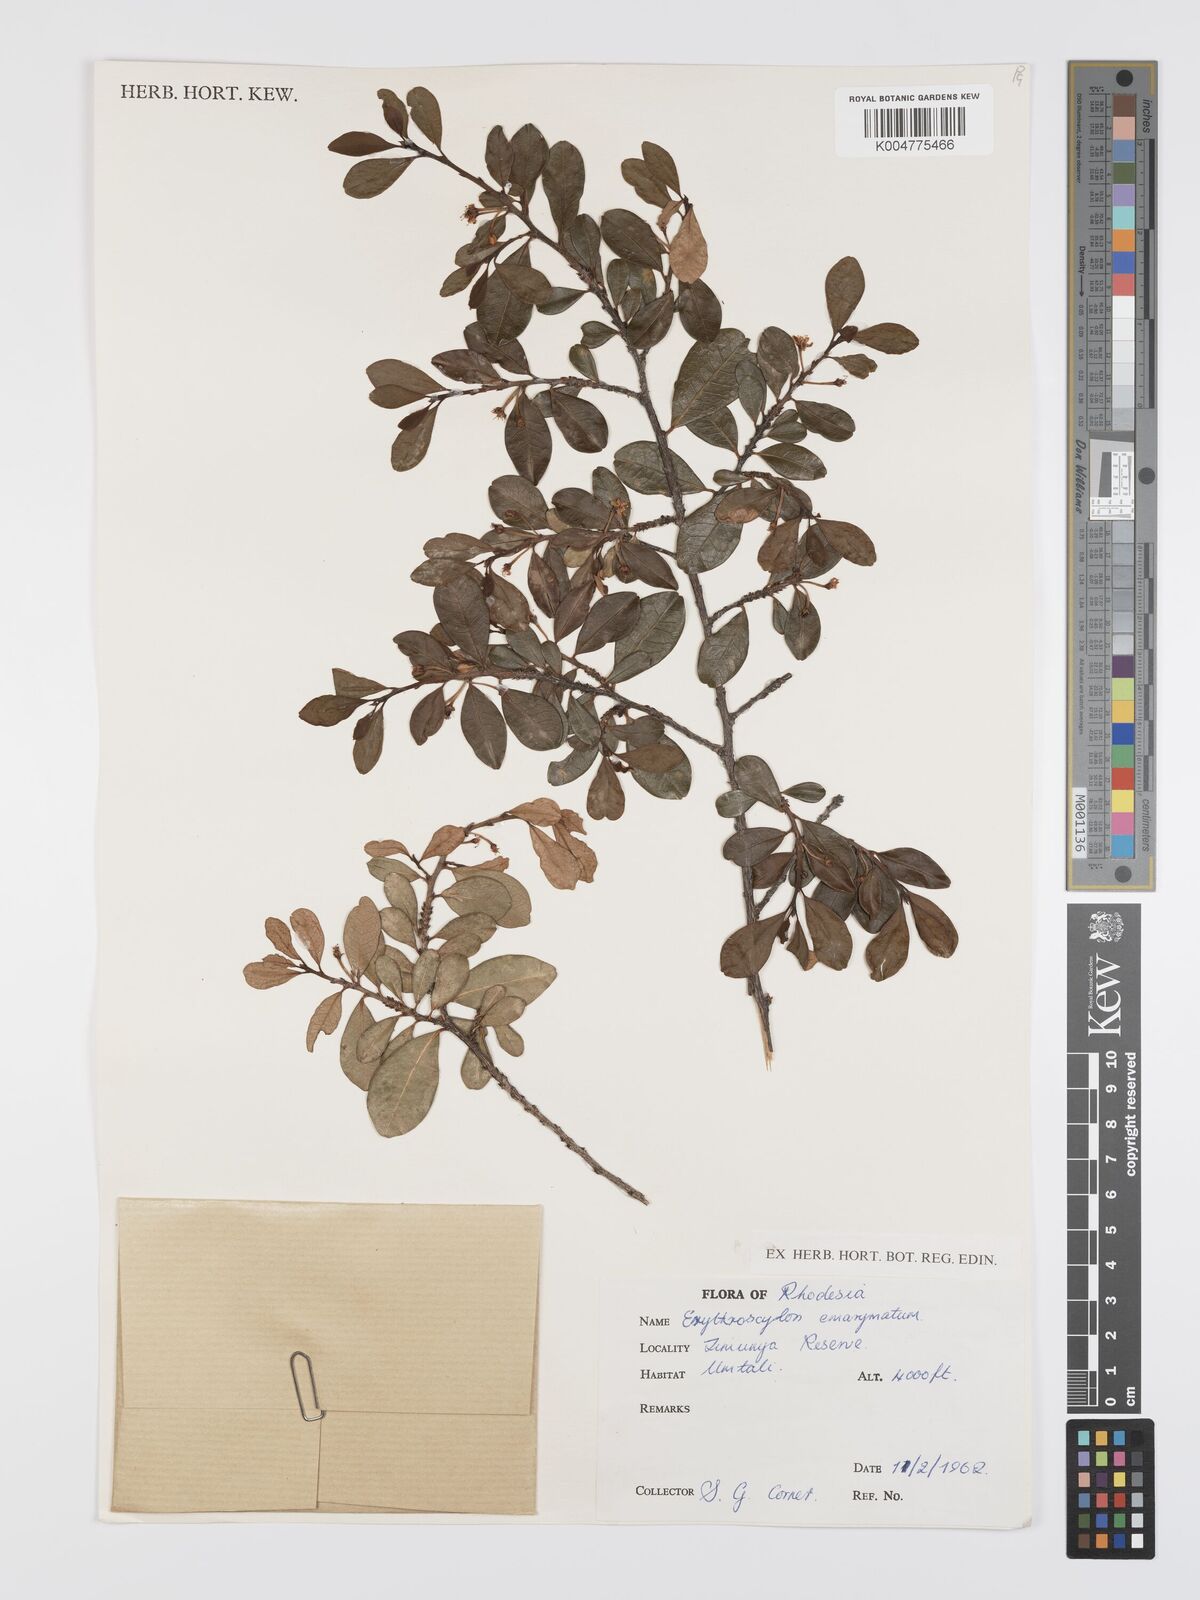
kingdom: Plantae
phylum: Tracheophyta
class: Magnoliopsida
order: Malpighiales
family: Erythroxylaceae
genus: Erythroxylum
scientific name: Erythroxylum emarginatum
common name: African coca-tree
